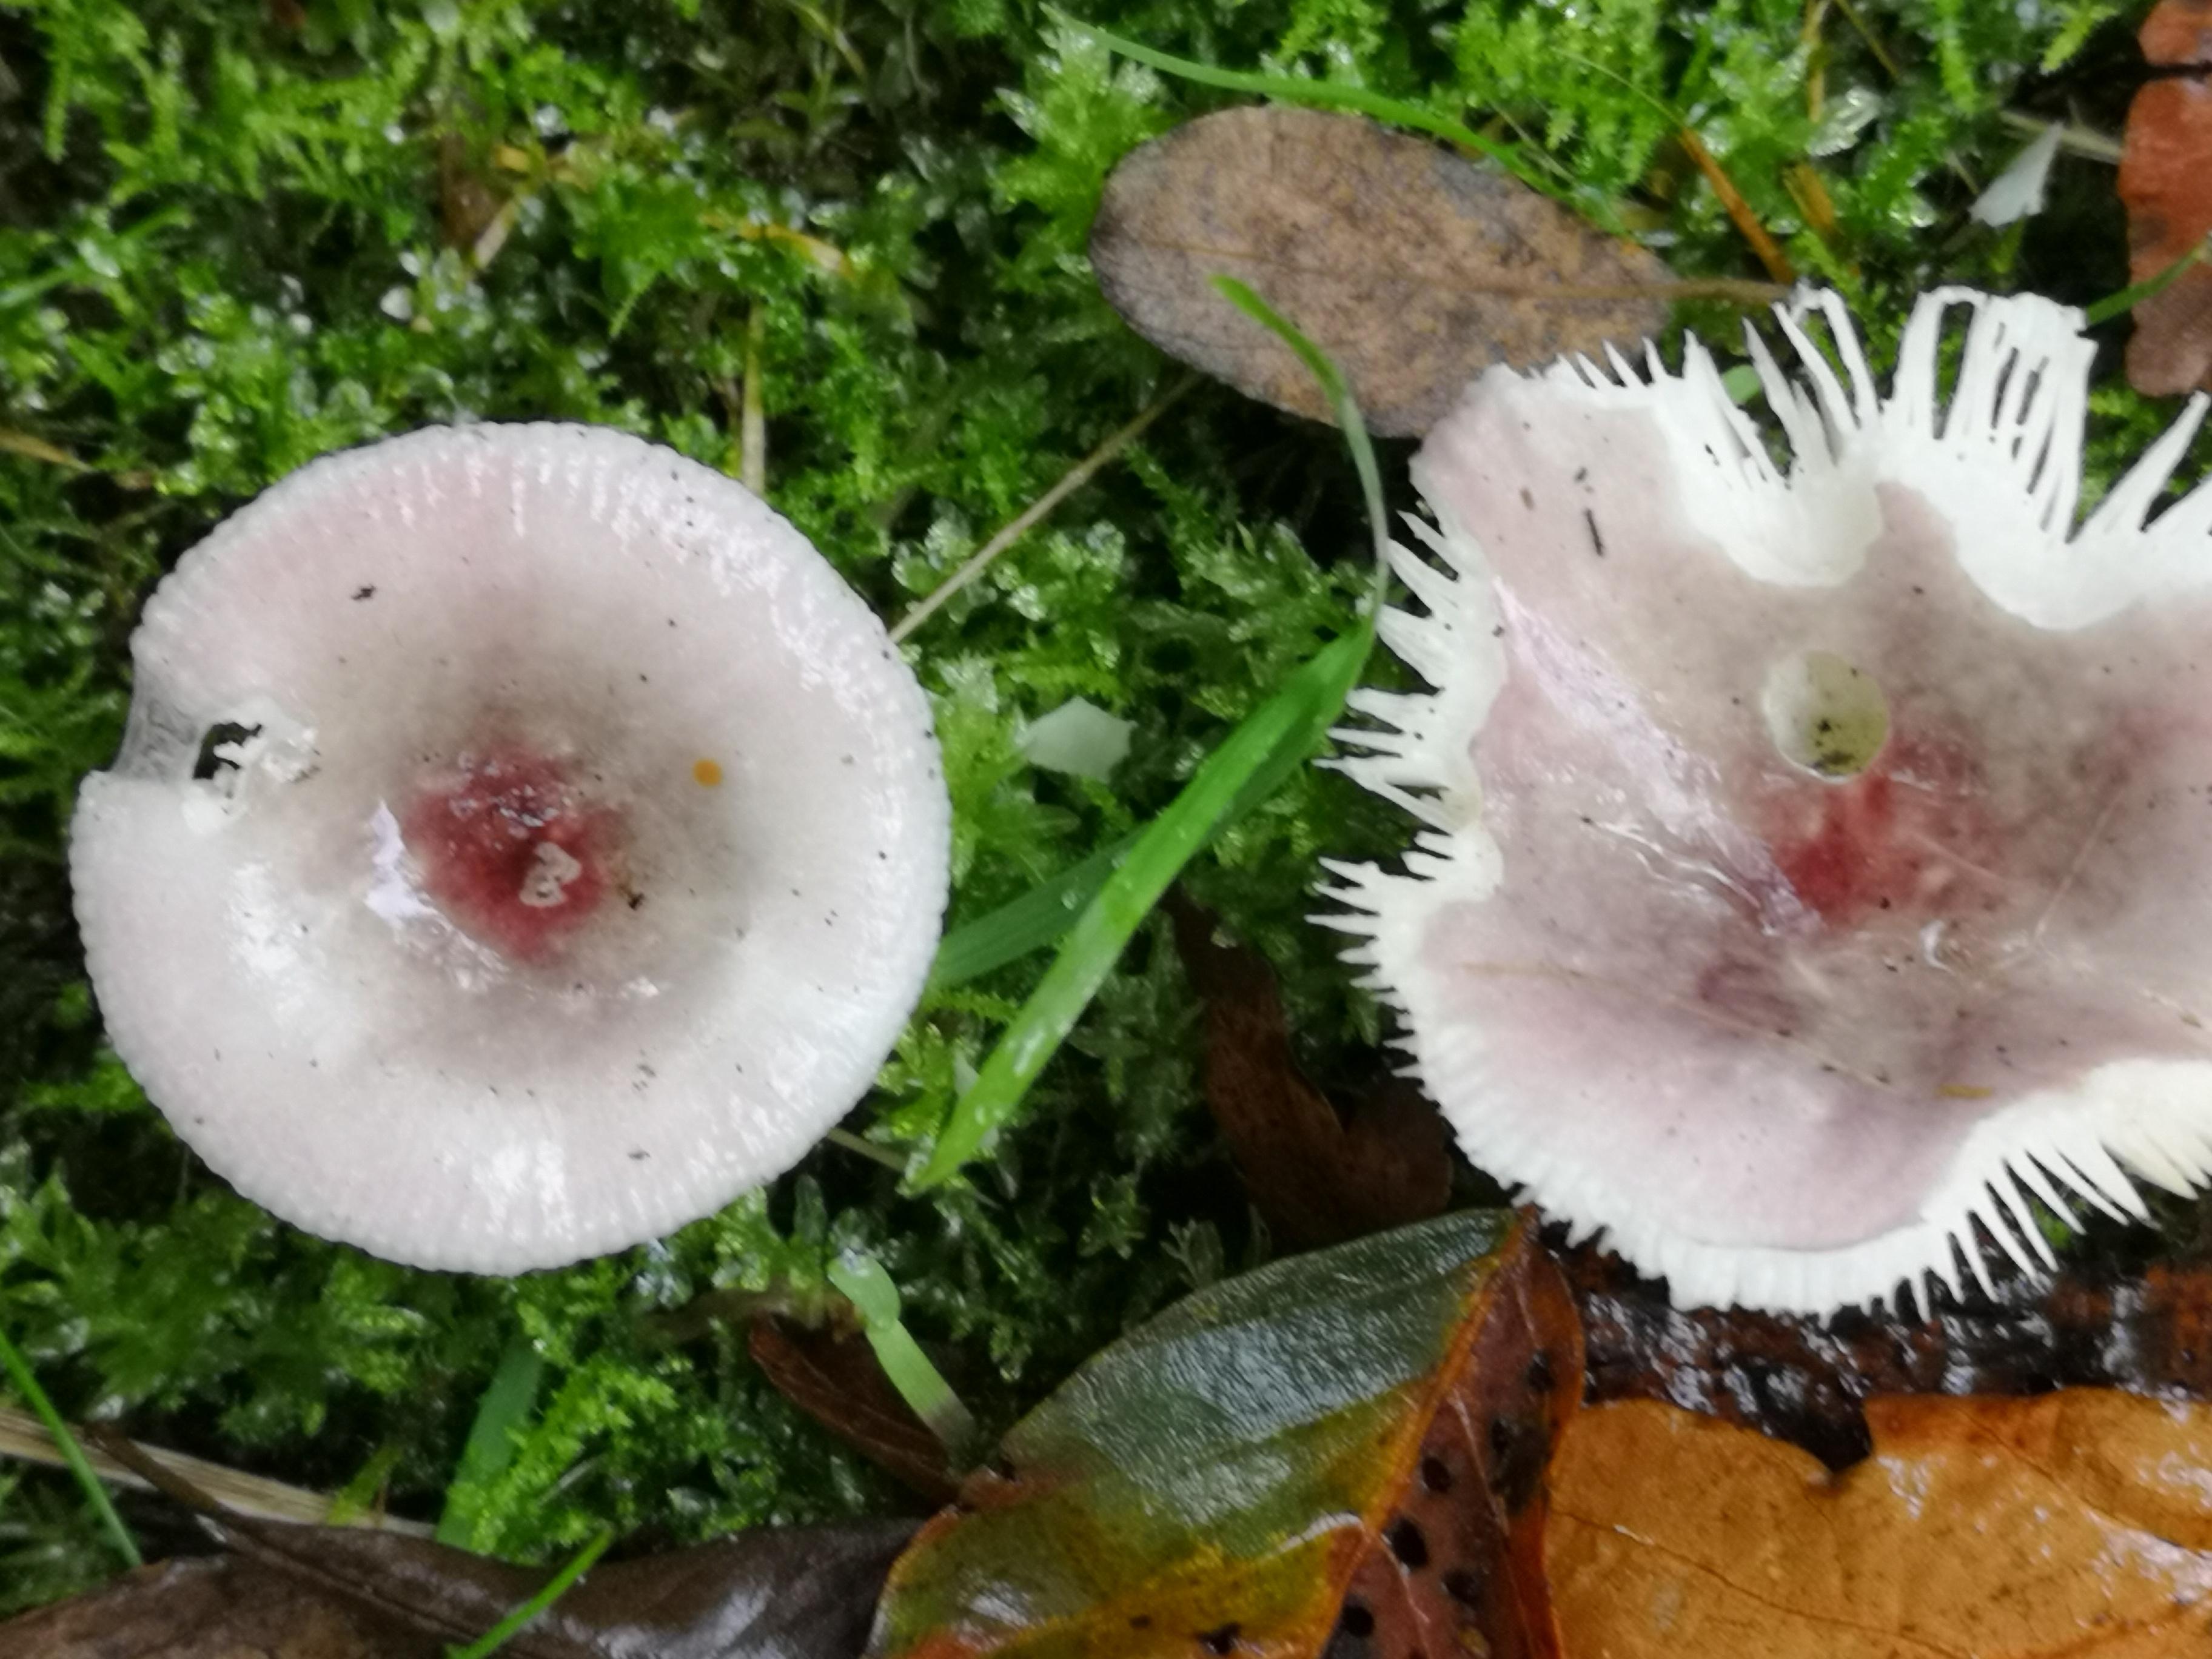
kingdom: Fungi
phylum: Basidiomycota
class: Agaricomycetes
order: Russulales
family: Russulaceae
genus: Russula
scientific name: Russula heterophylla
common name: gaffelbladet skørhat
